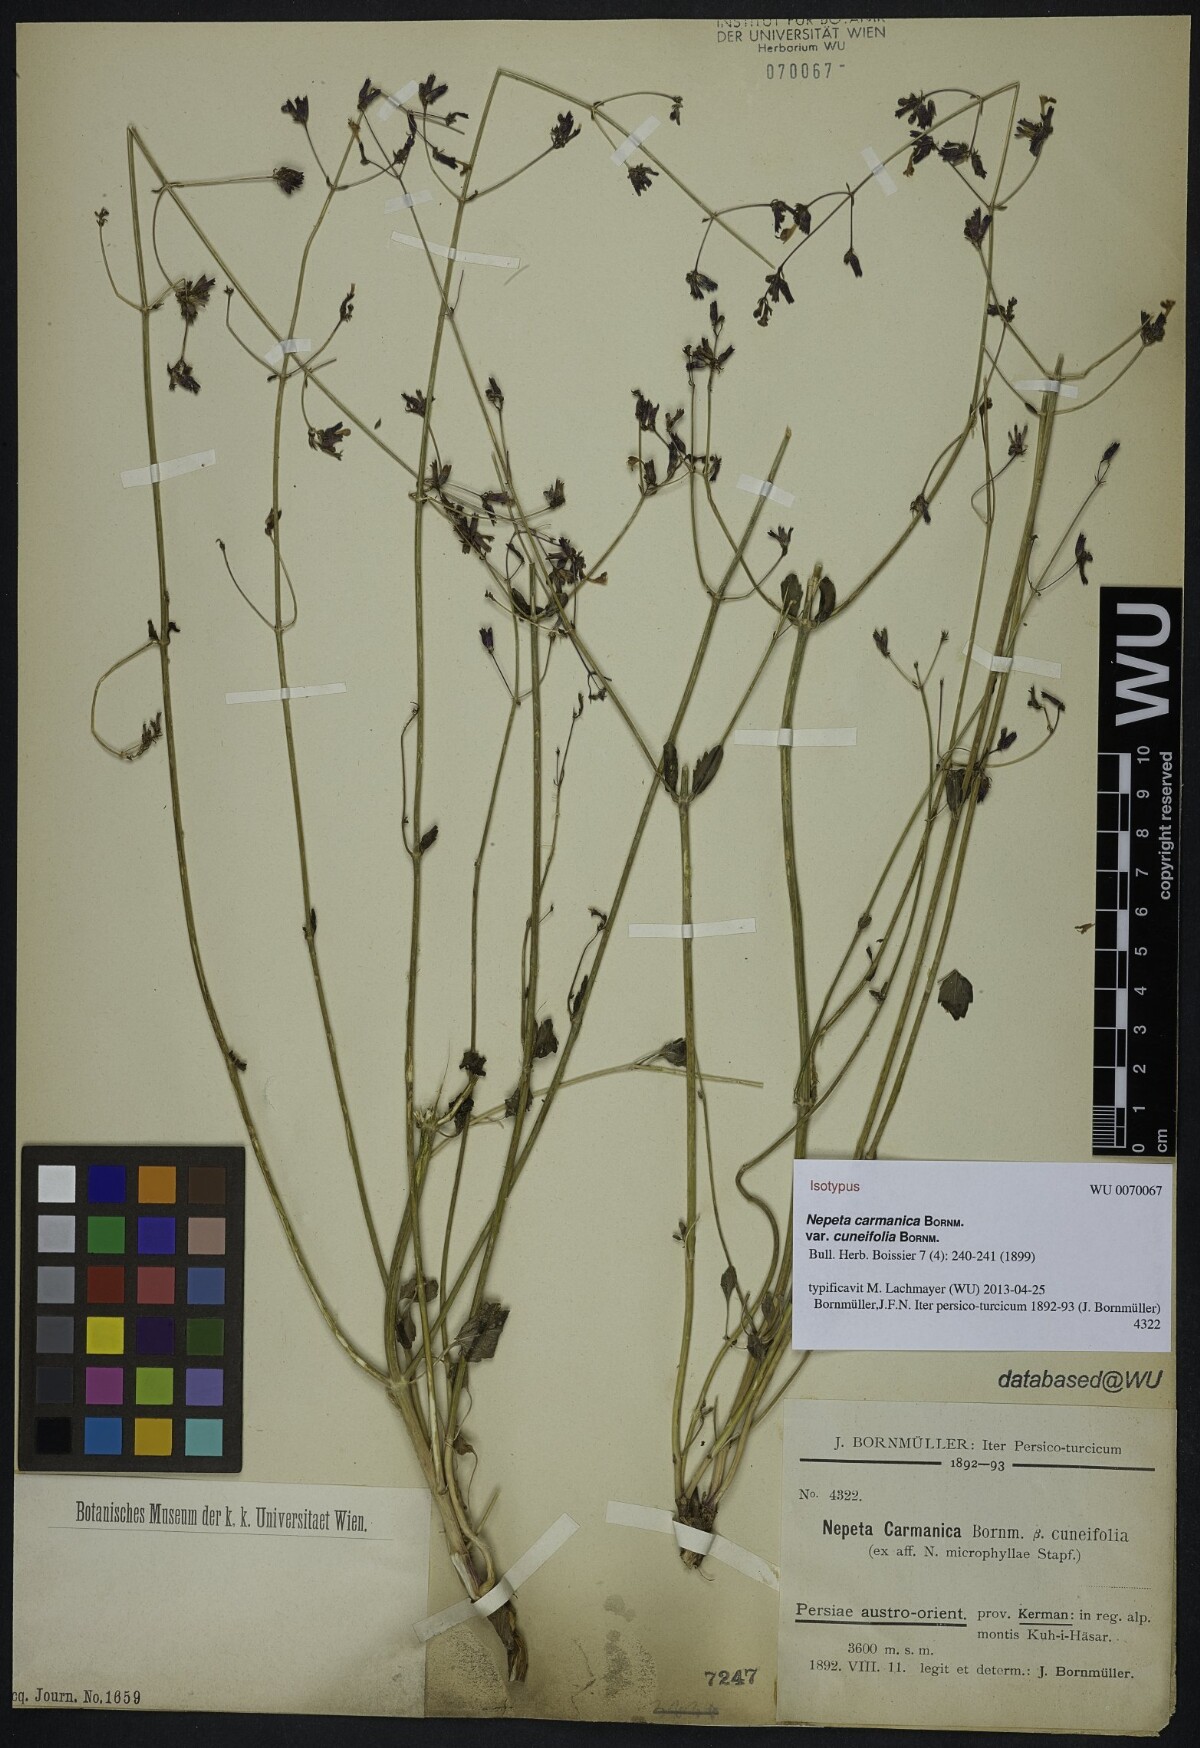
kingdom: Plantae
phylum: Tracheophyta
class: Magnoliopsida
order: Lamiales
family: Lamiaceae
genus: Nepeta
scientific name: Nepeta teucriifolia
